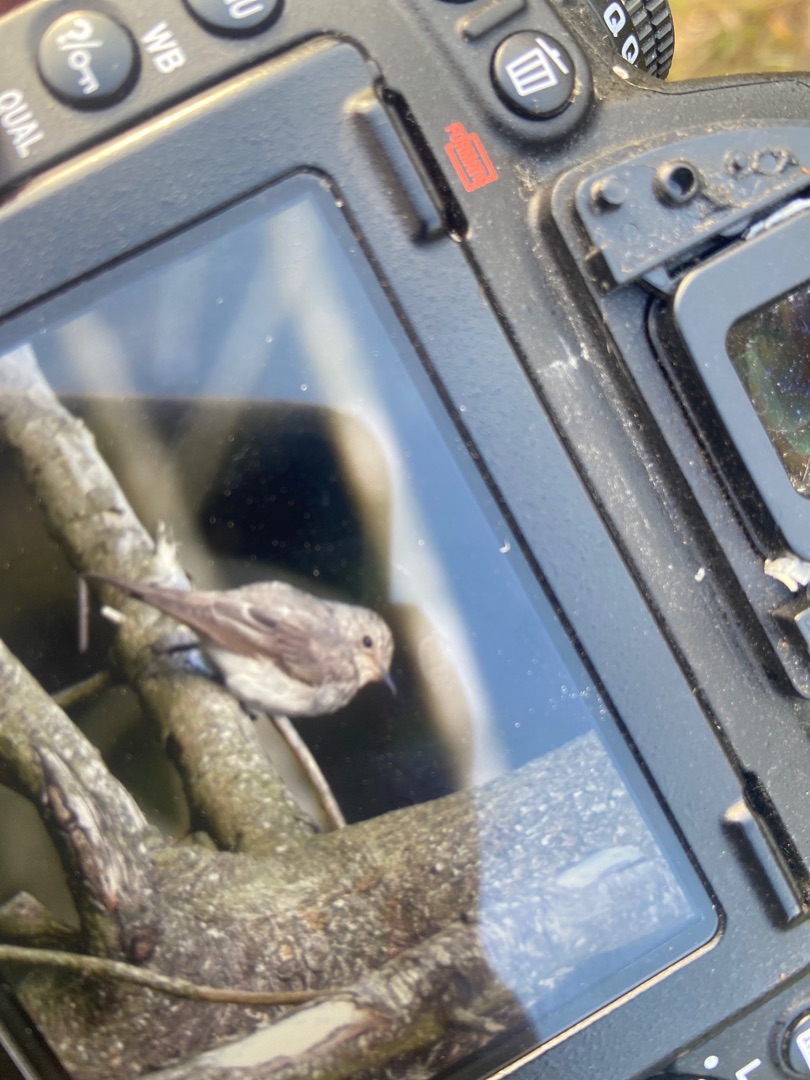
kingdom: Animalia
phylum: Chordata
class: Aves
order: Passeriformes
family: Muscicapidae
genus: Muscicapa
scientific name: Muscicapa striata
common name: Grå fluesnapper
